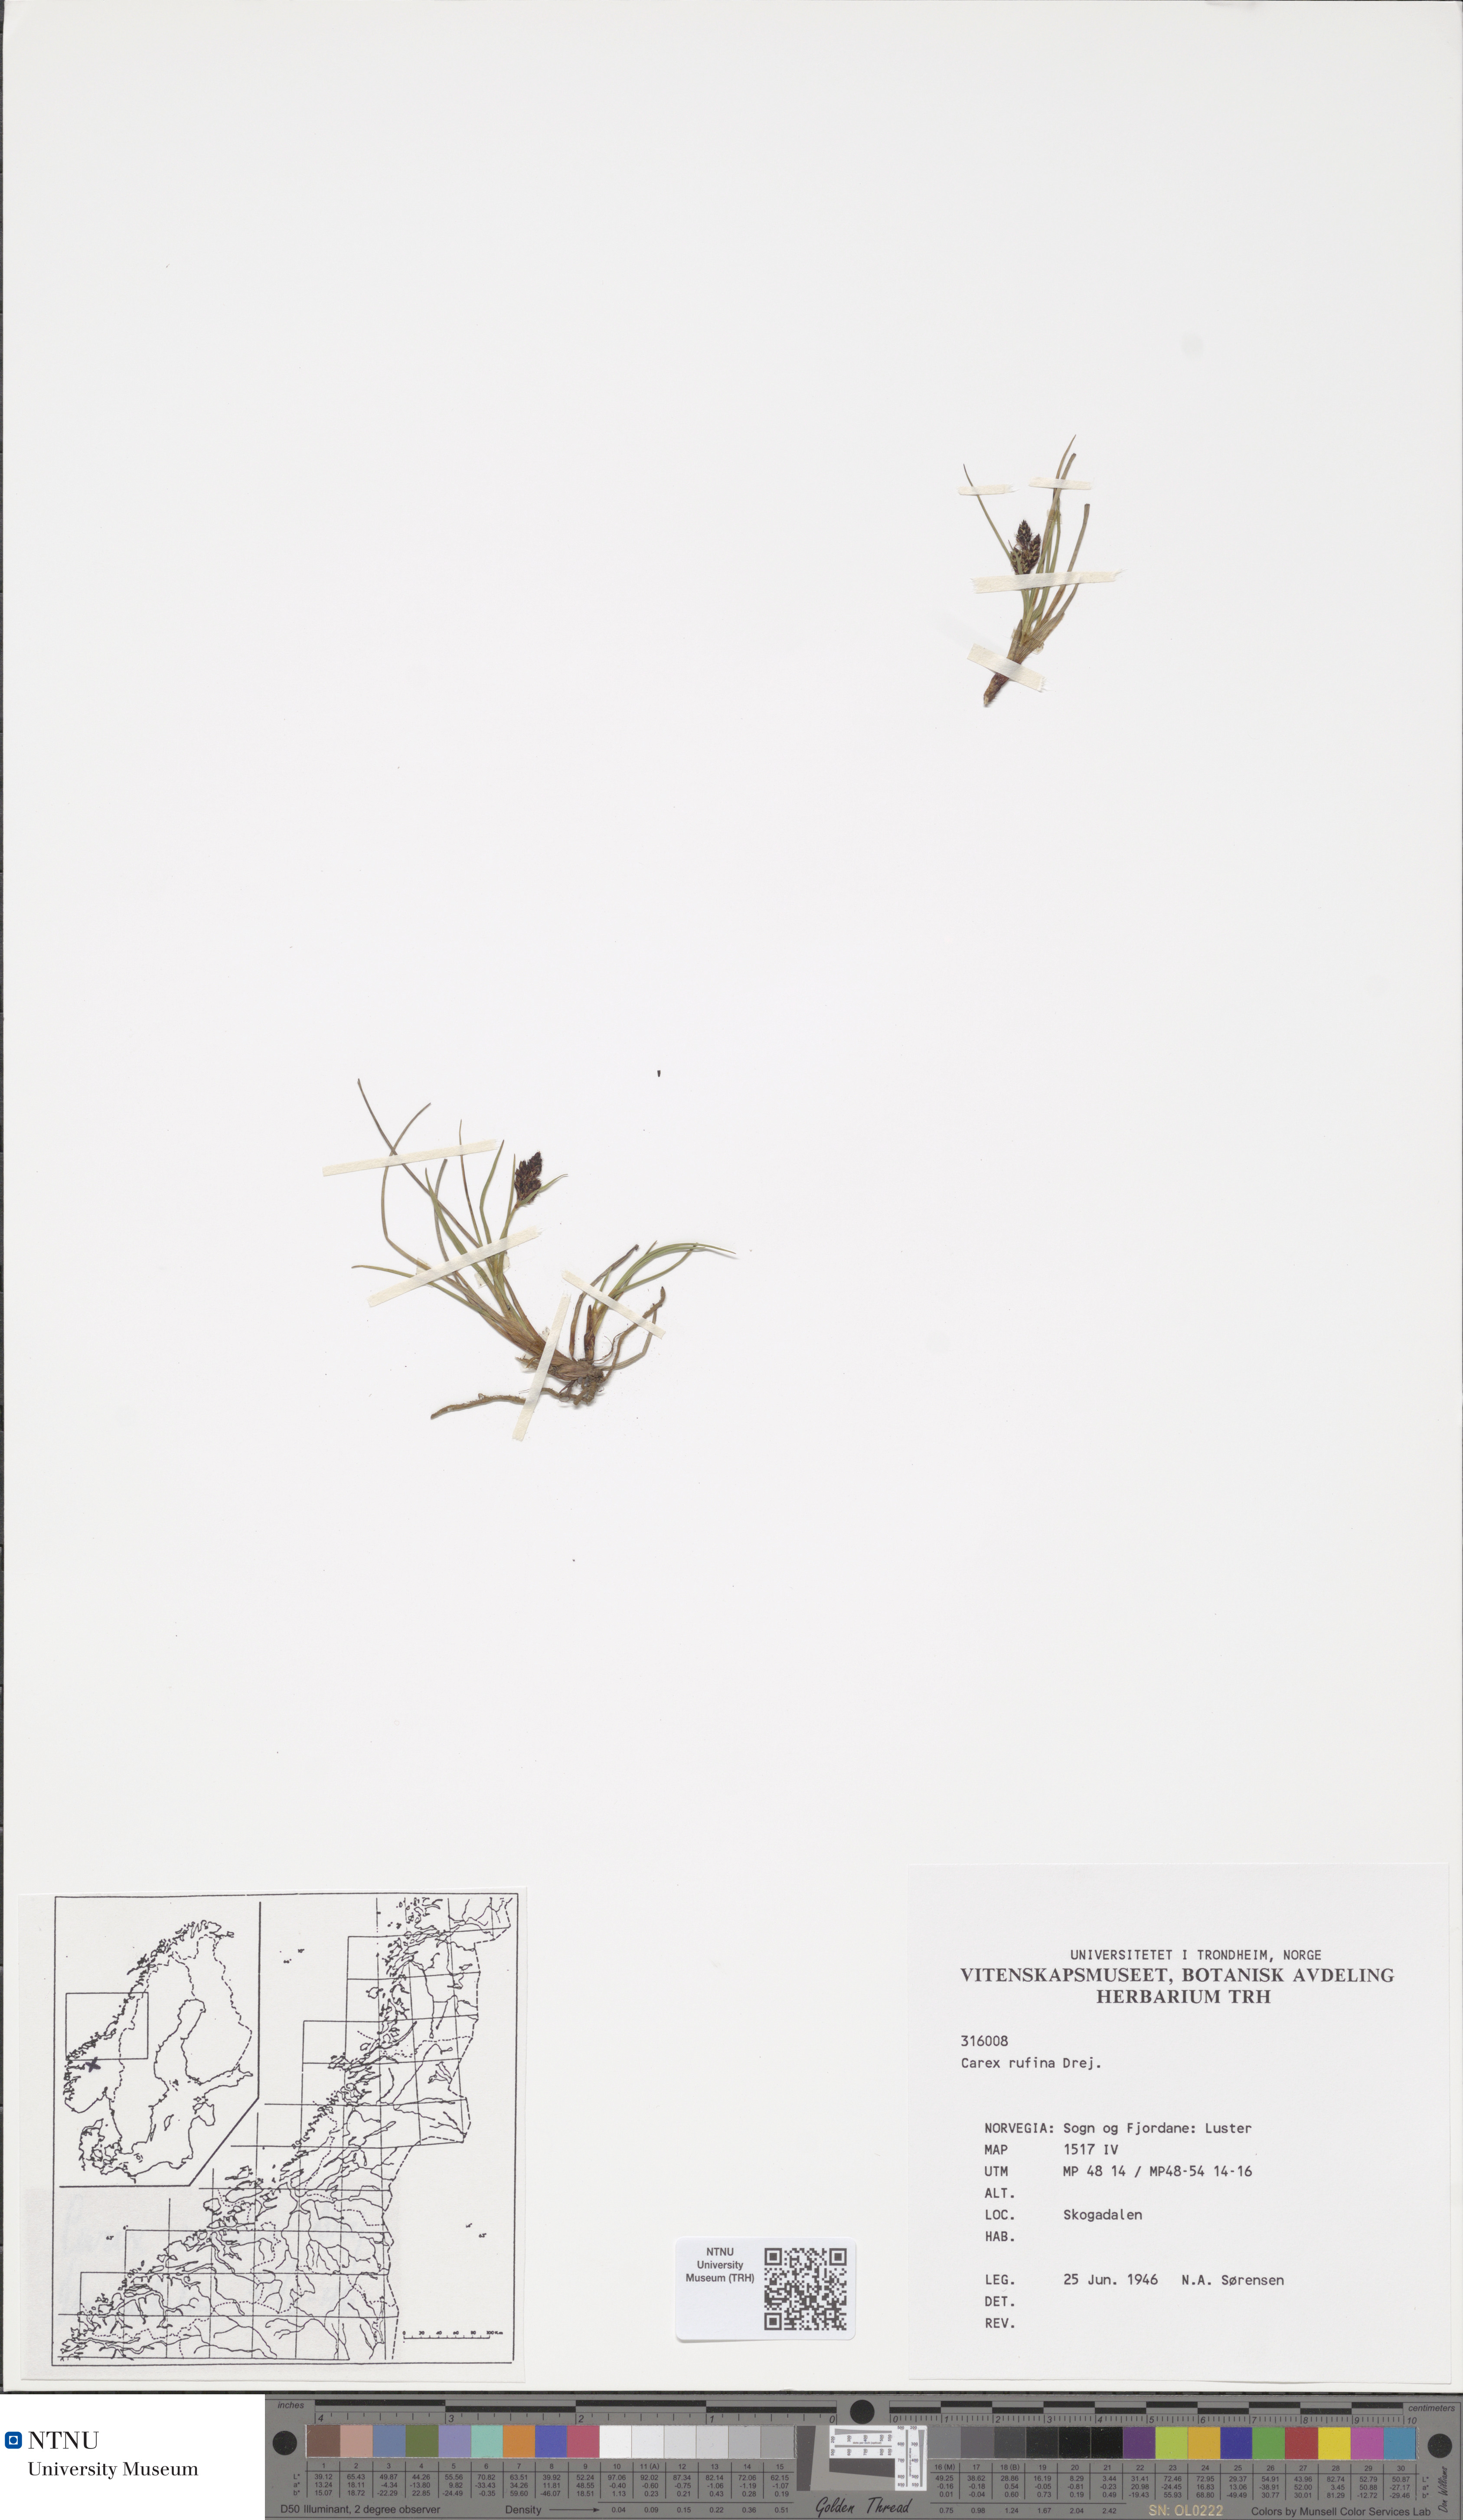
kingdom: Plantae
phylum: Tracheophyta
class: Liliopsida
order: Poales
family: Cyperaceae
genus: Carex
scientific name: Carex rufina
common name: Reddish sedge
